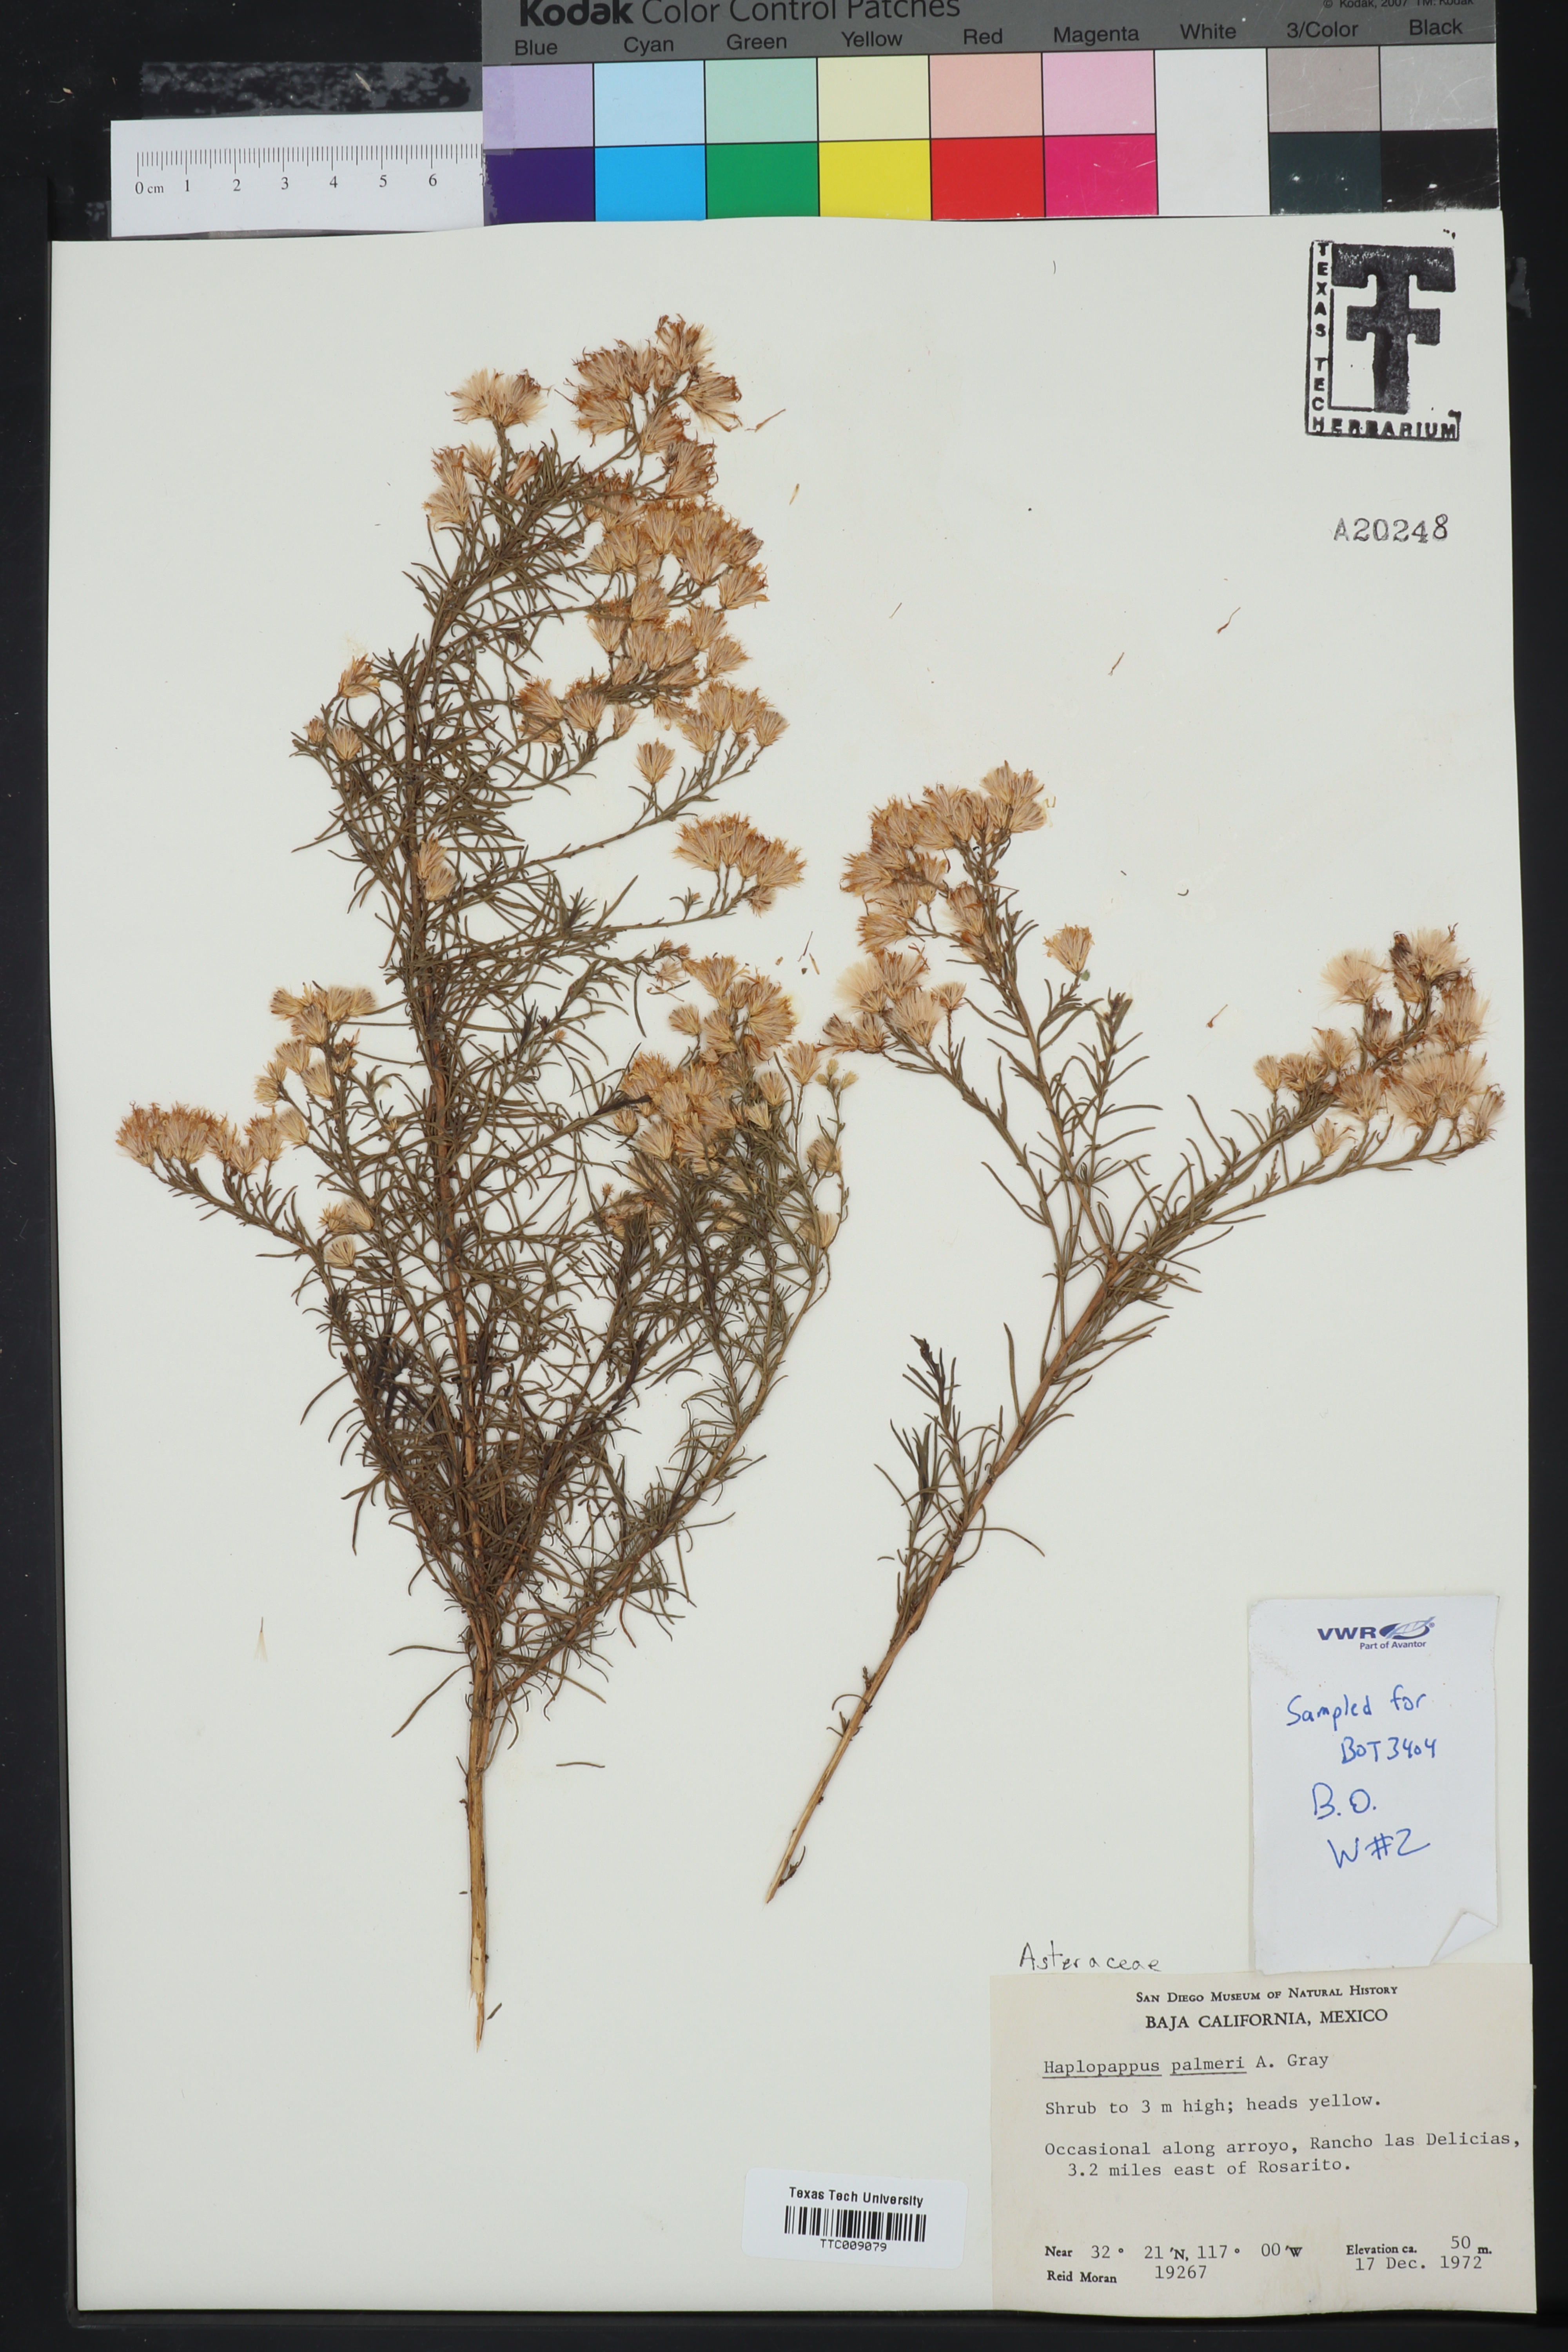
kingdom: Plantae
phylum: Tracheophyta
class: Magnoliopsida
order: Asterales
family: Asteraceae
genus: Ericameria
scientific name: Ericameria palmeri
